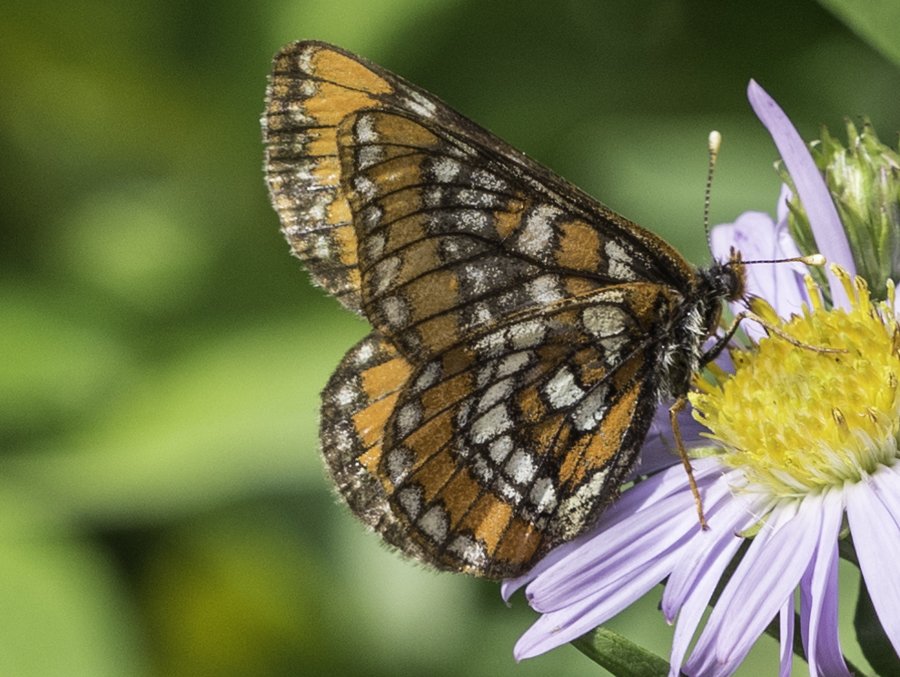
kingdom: Animalia
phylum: Arthropoda
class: Insecta
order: Lepidoptera
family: Nymphalidae
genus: Hypodryas
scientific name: Hypodryas gillettii
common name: Gillette's Checkerspot
